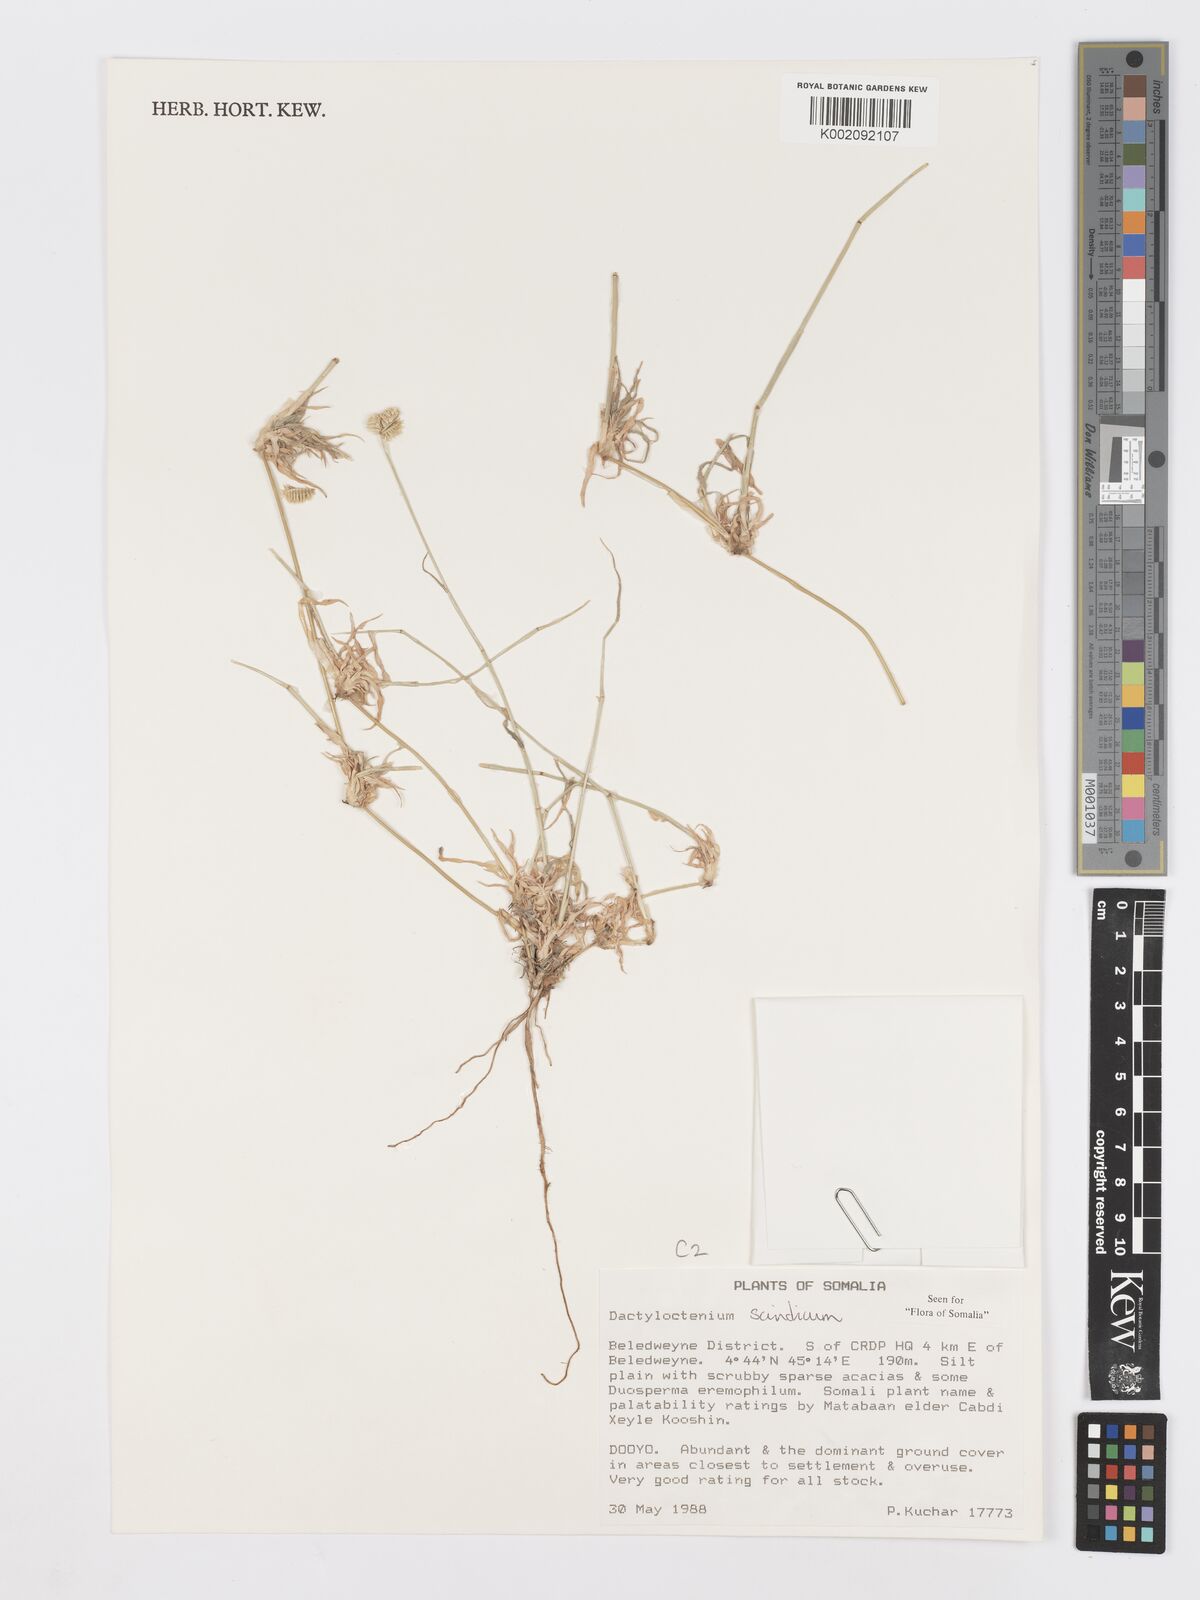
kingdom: Plantae
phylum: Tracheophyta
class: Liliopsida
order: Poales
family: Poaceae
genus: Dactyloctenium
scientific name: Dactyloctenium scindicum
